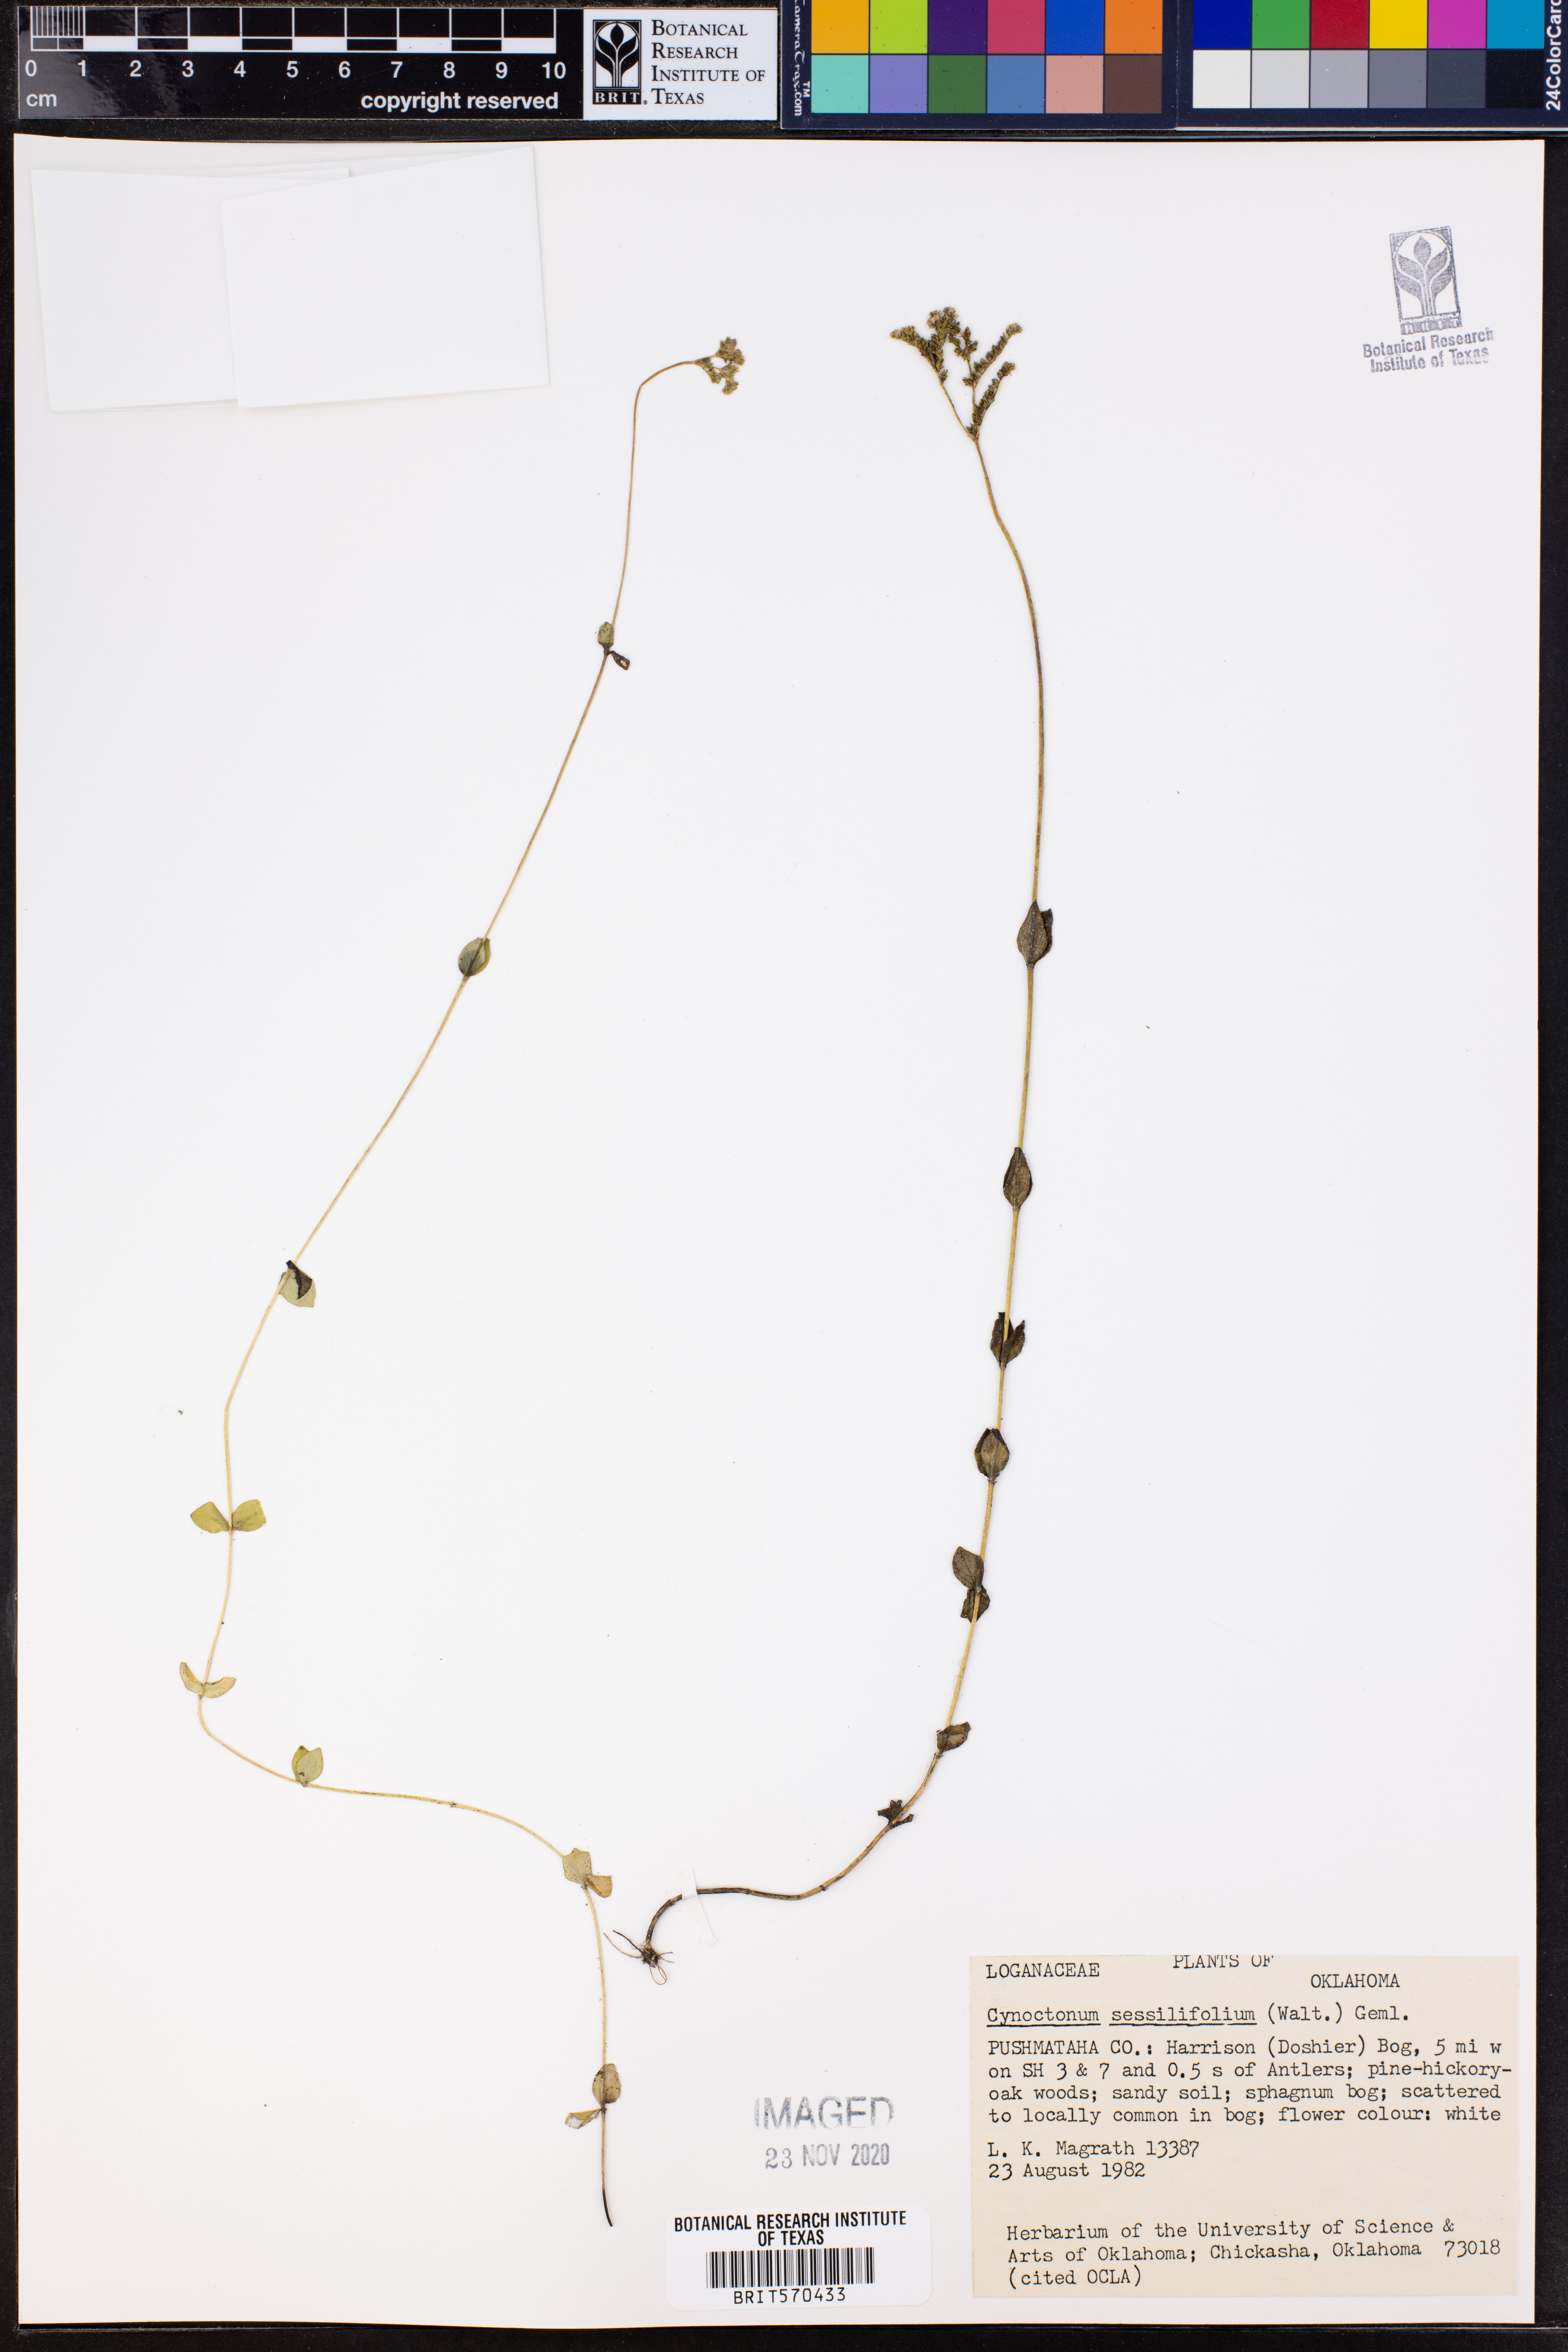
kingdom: Plantae
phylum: Tracheophyta
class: Magnoliopsida
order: Gentianales
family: Loganiaceae
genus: Mitreola
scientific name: Mitreola sessilifolia
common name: Swamp hornpod
